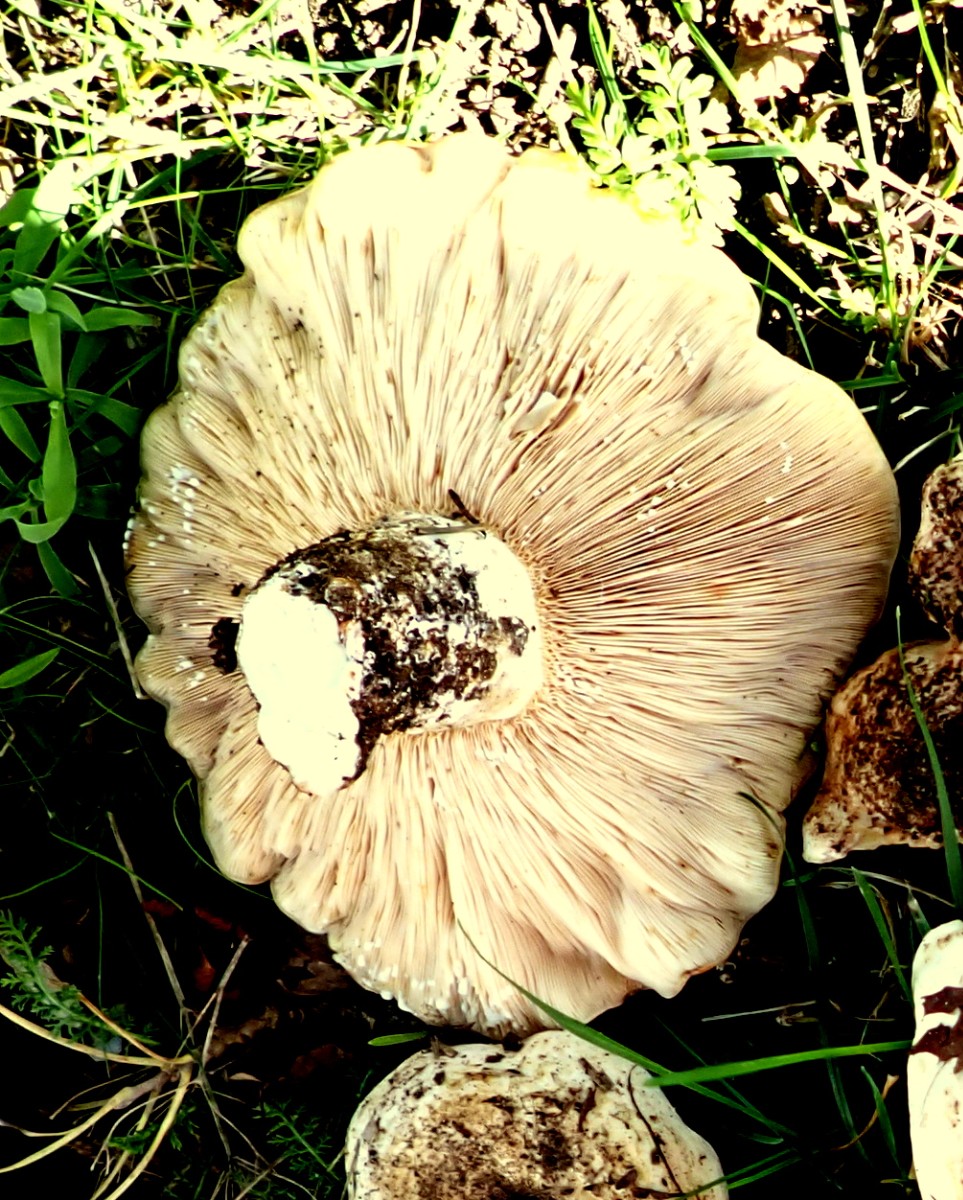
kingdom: Fungi
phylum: Basidiomycota
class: Agaricomycetes
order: Russulales
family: Russulaceae
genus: Lactarius
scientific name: Lactarius controversus
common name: rosabladet mælkehat
